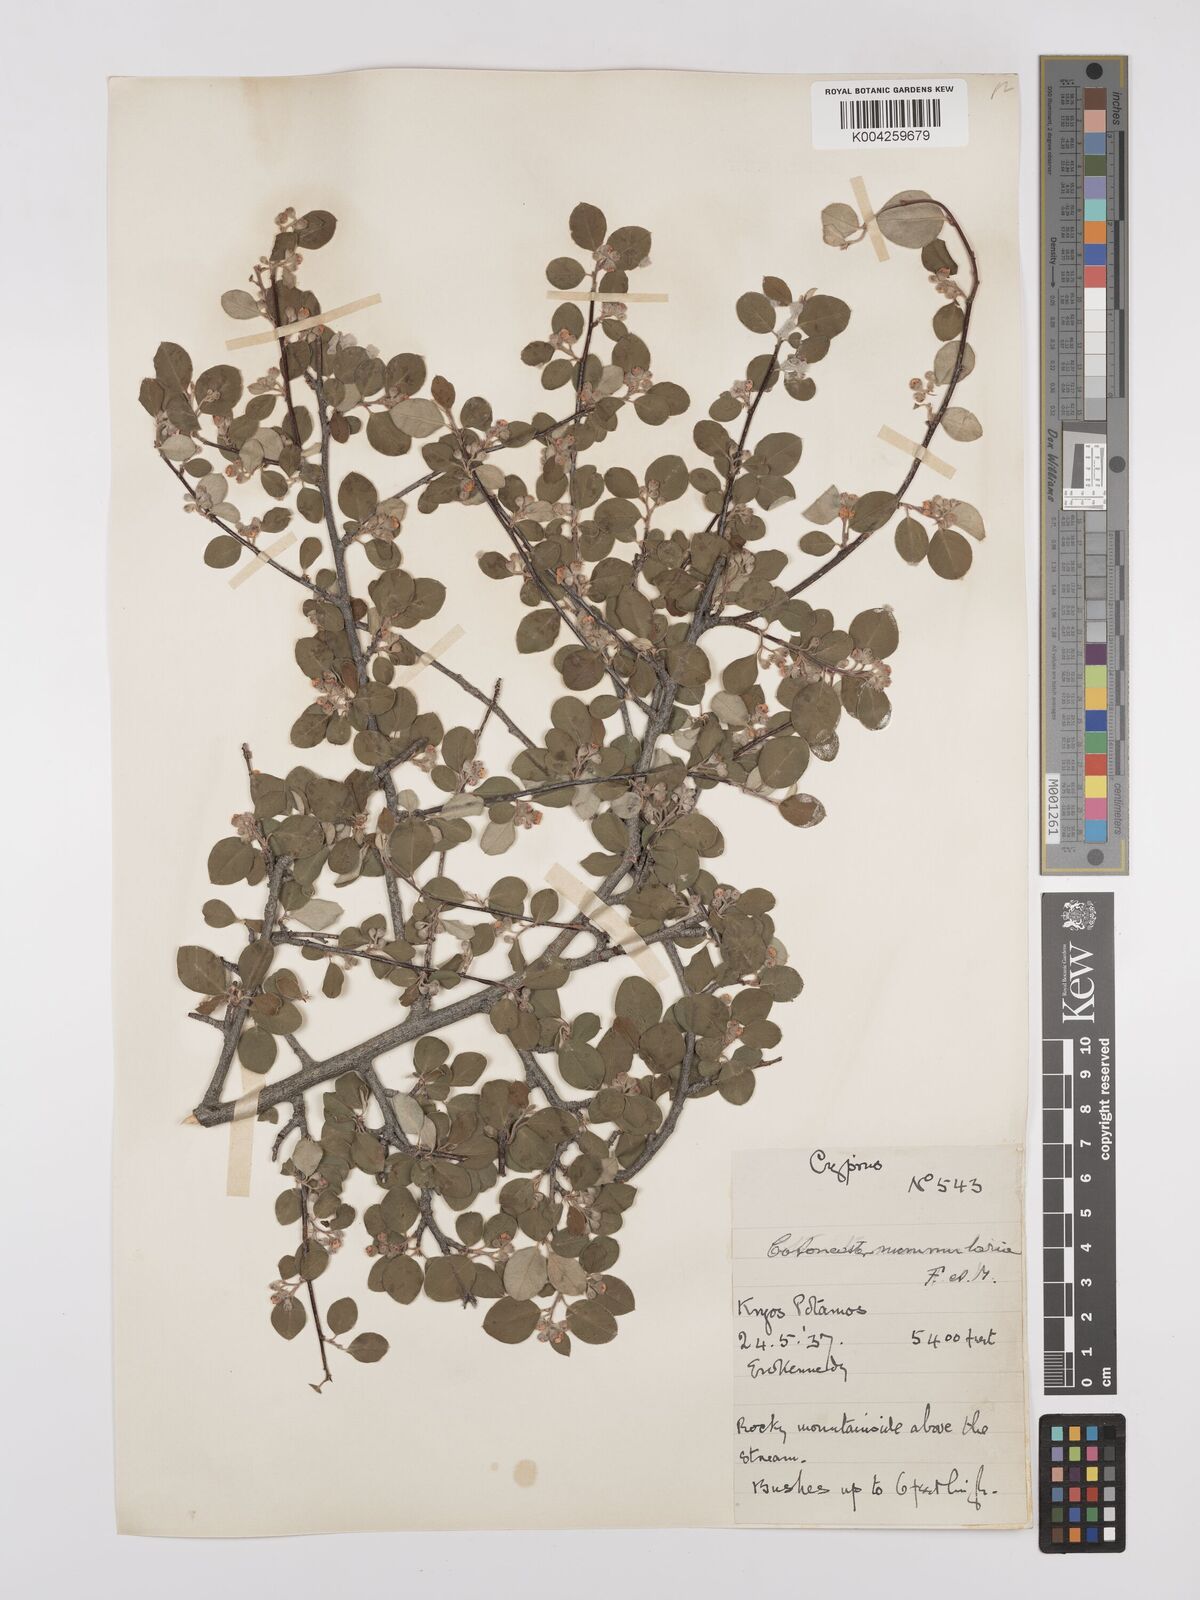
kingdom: Plantae
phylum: Tracheophyta
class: Magnoliopsida
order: Rosales
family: Rosaceae
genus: Cotoneaster
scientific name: Cotoneaster nummularius
